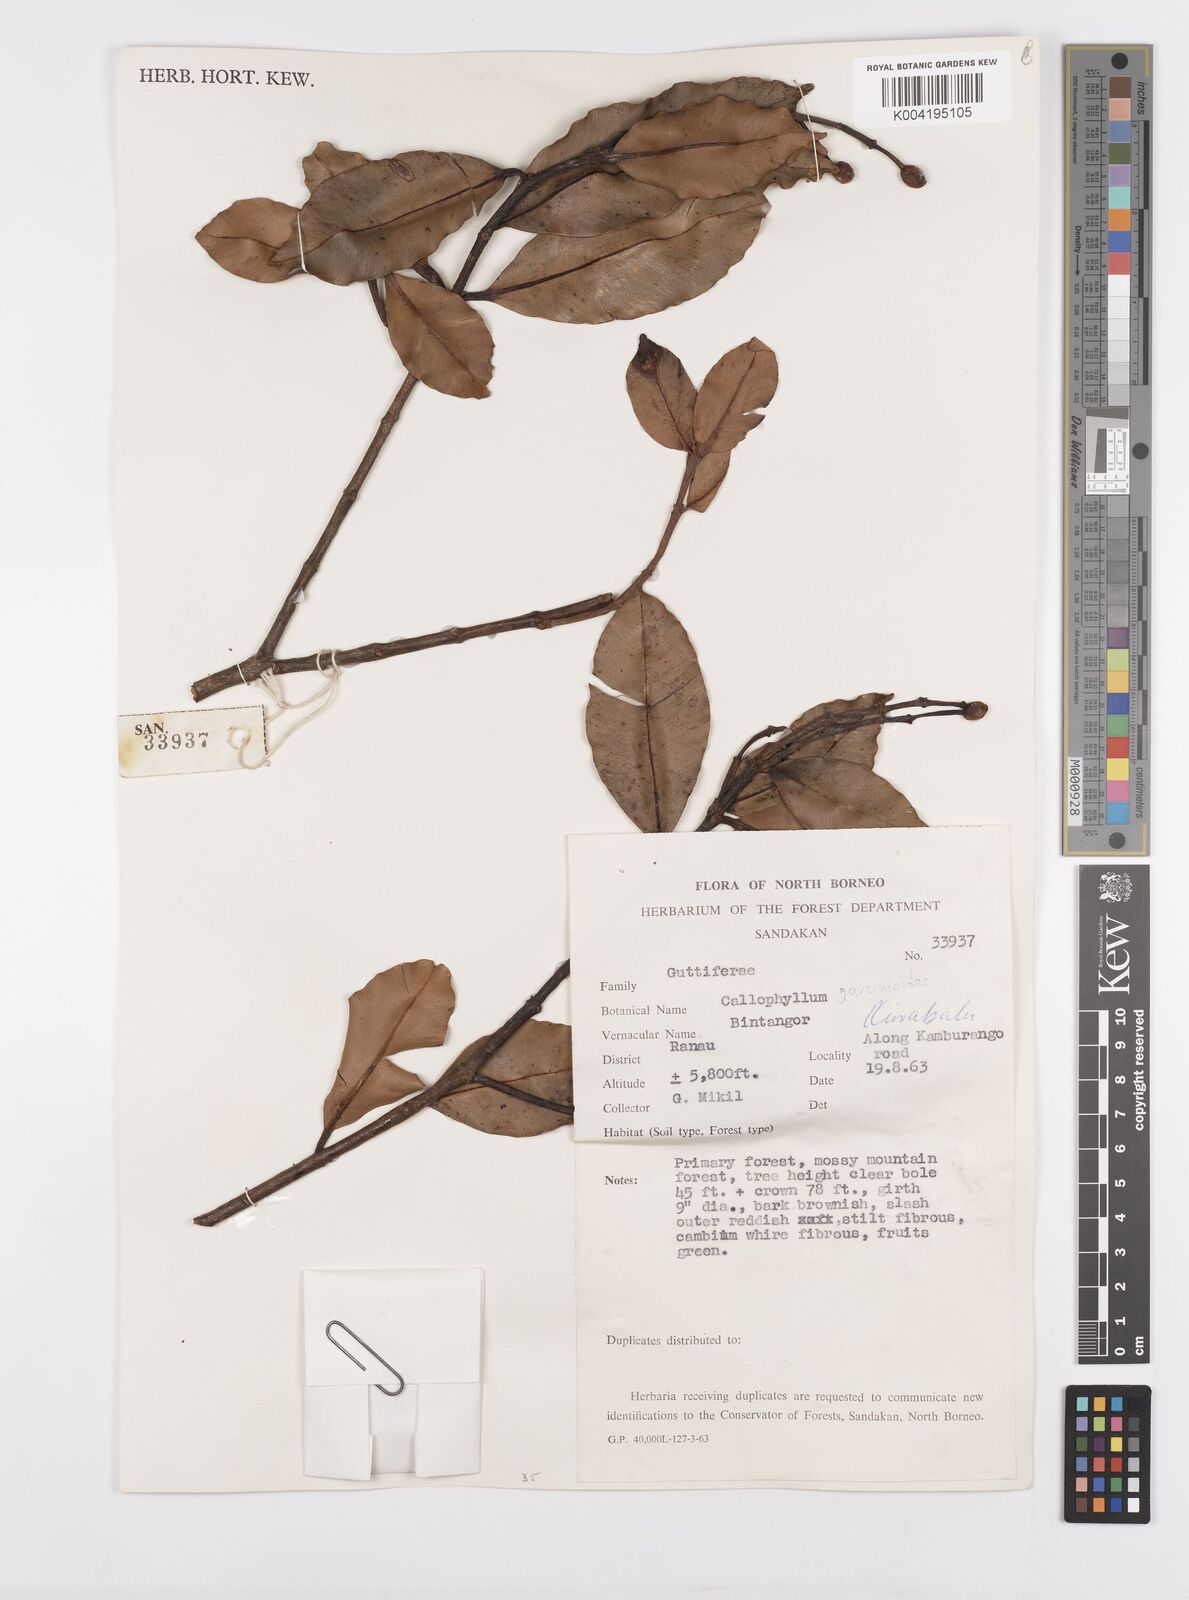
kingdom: Plantae
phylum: Tracheophyta
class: Magnoliopsida
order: Malpighiales
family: Calophyllaceae
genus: Calophyllum
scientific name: Calophyllum garcinioides
